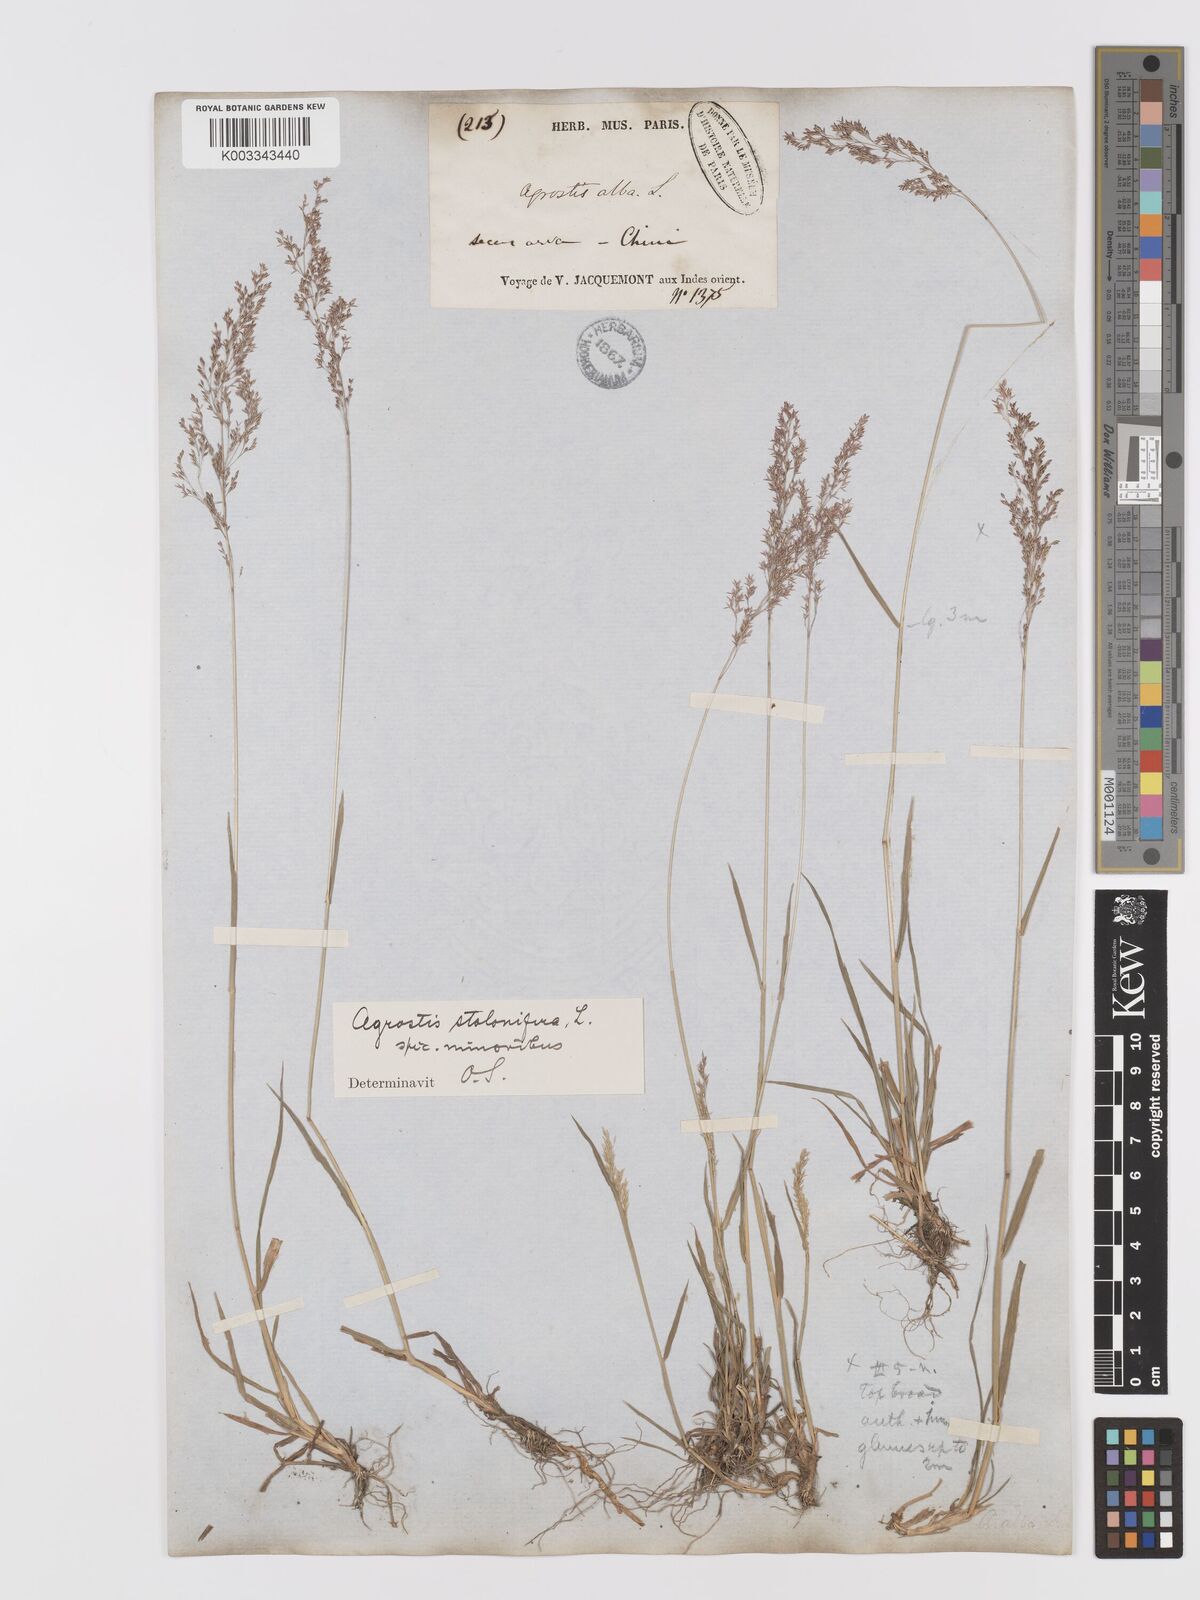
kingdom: Plantae
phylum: Tracheophyta
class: Liliopsida
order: Poales
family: Poaceae
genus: Agrostis
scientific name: Agrostis stolonifera
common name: Creeping bentgrass
